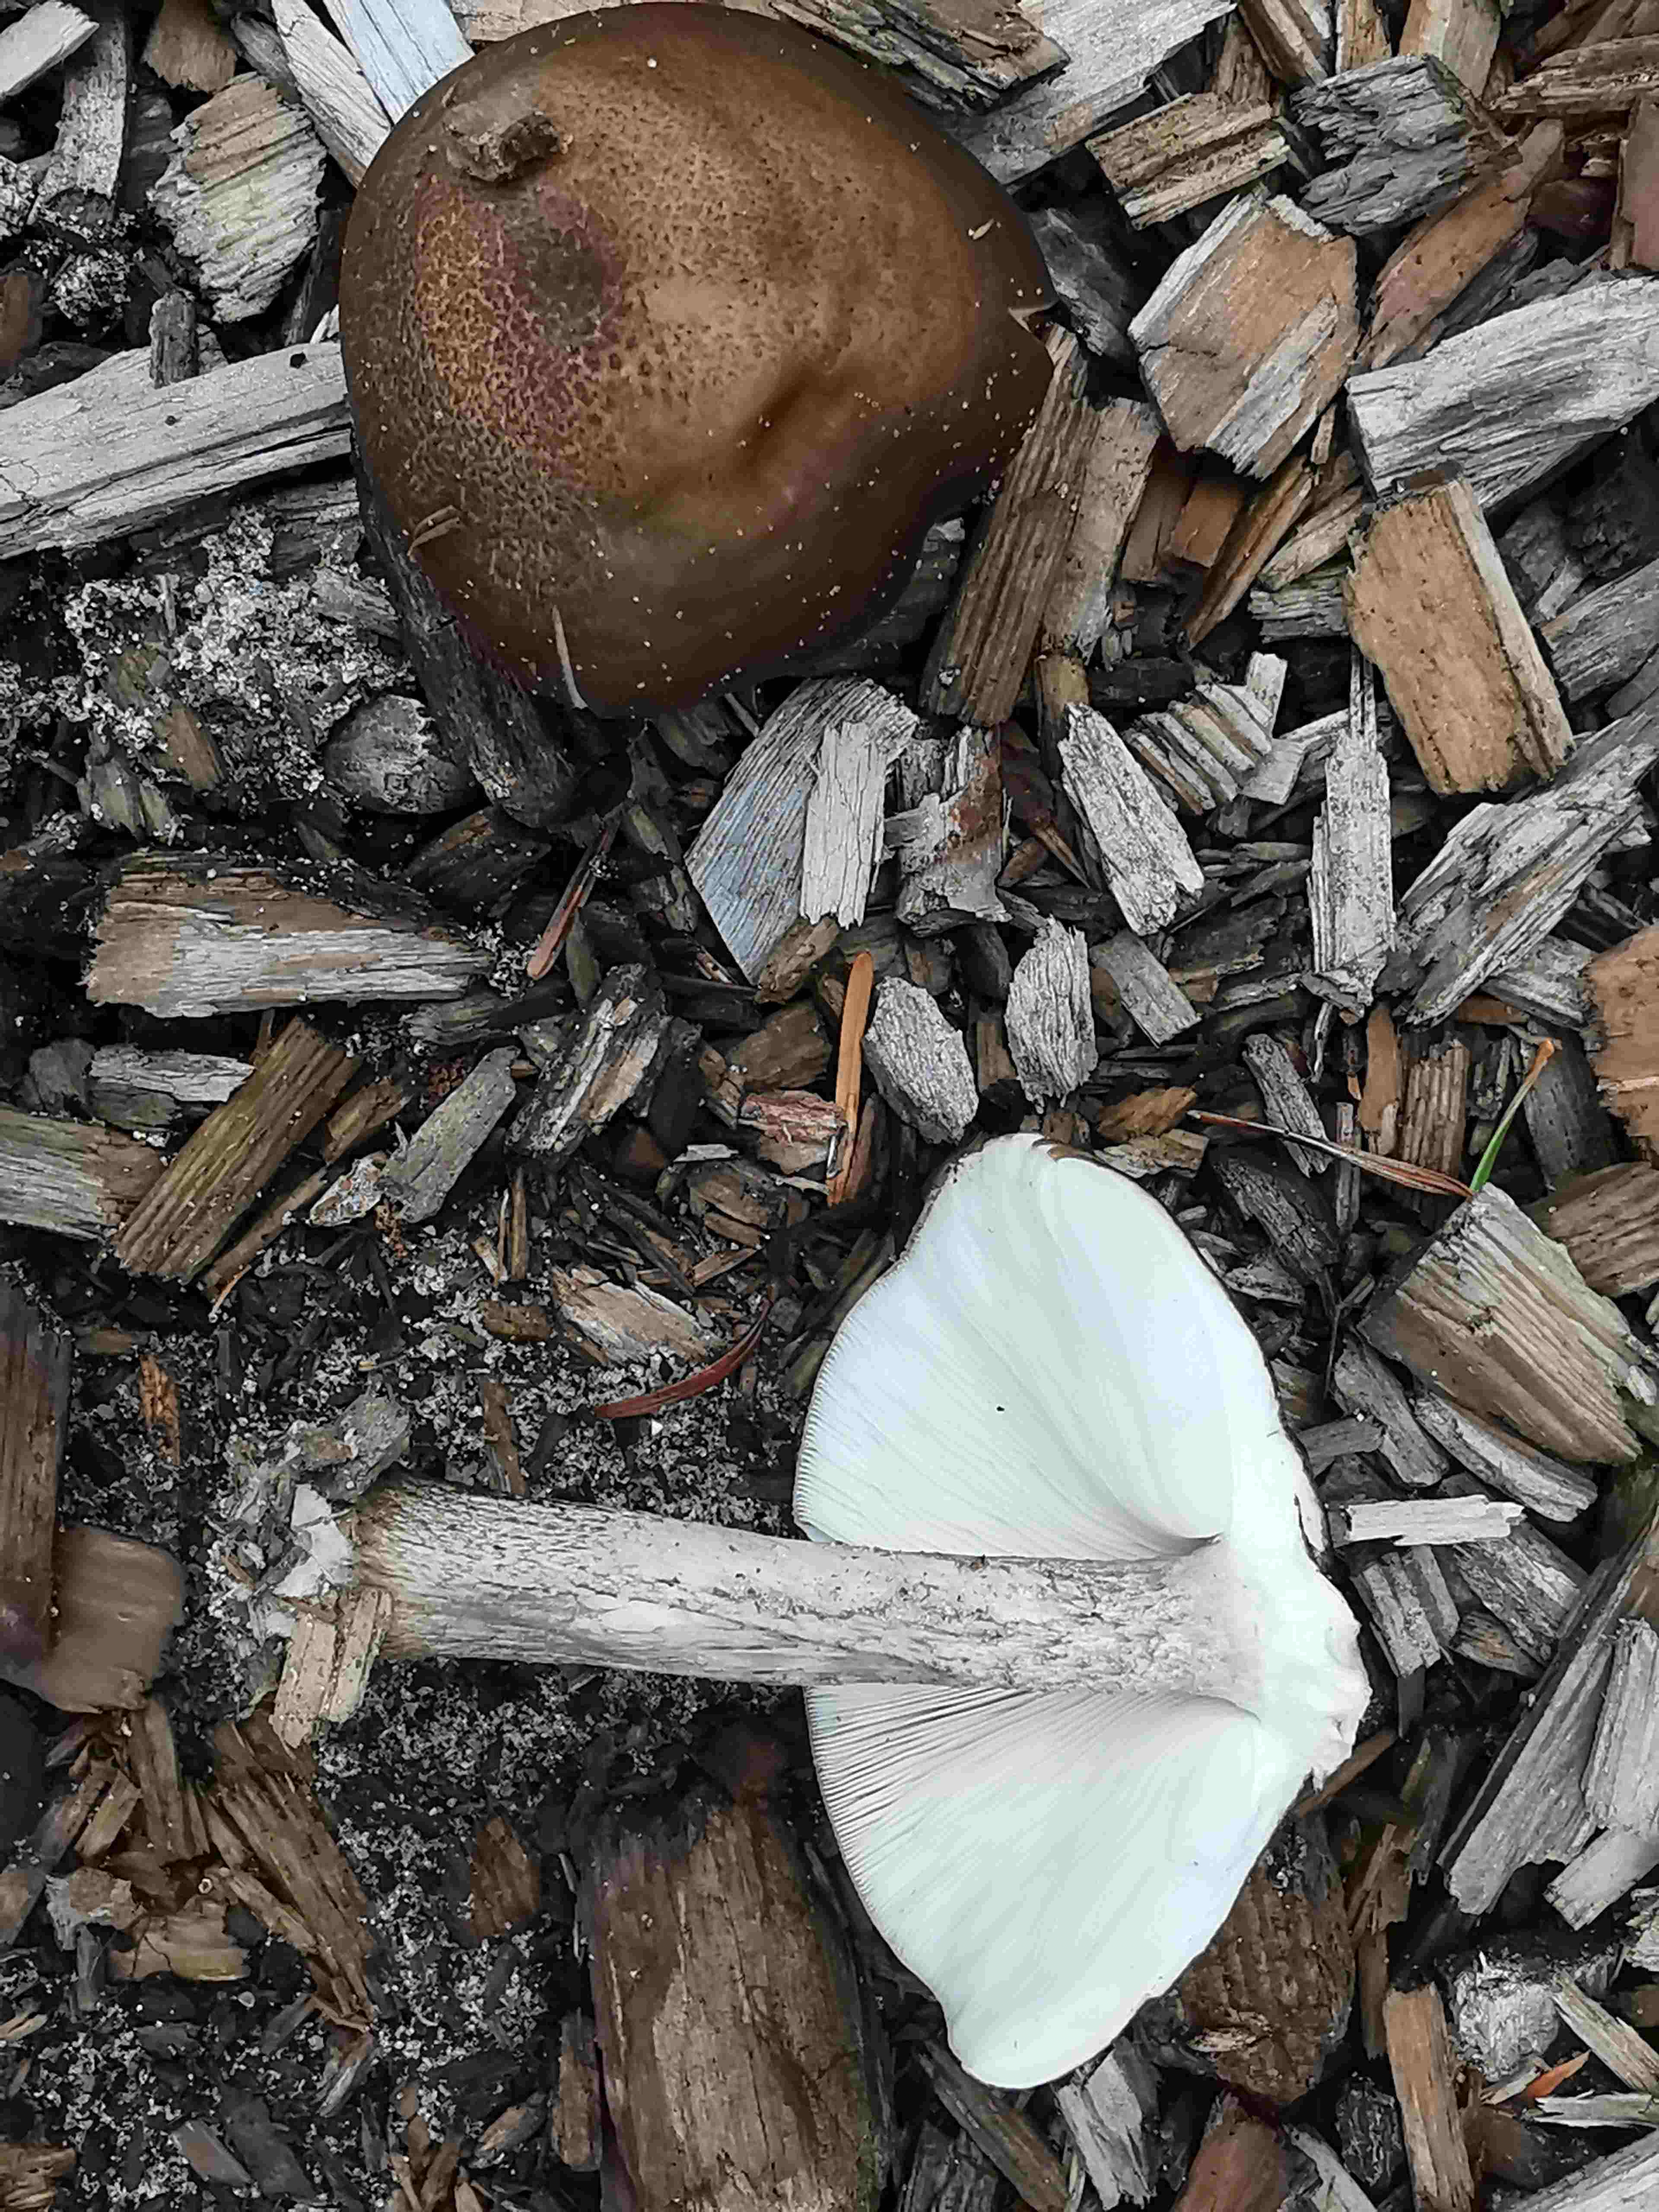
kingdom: Fungi
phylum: Basidiomycota
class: Agaricomycetes
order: Agaricales
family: Pluteaceae
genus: Pluteus
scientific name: Pluteus cervinus
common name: sodfarvet skærmhat
